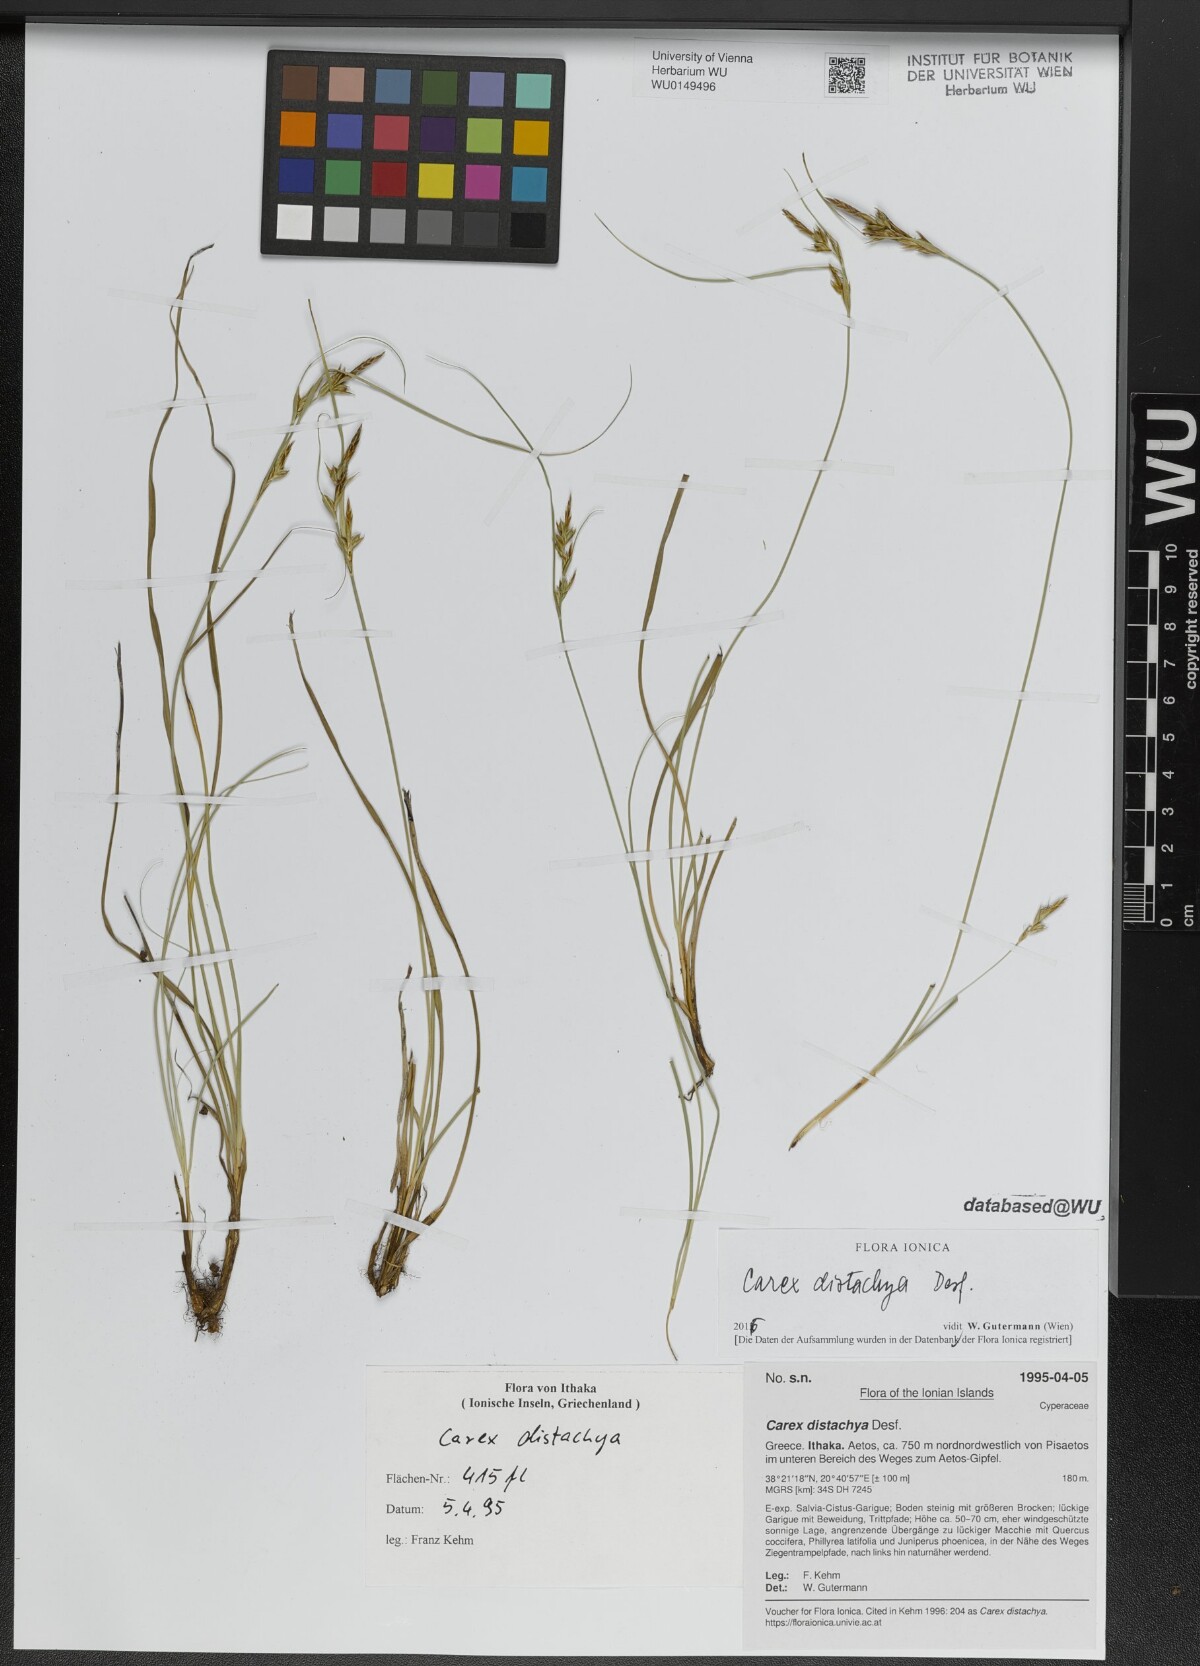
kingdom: Plantae
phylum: Tracheophyta
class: Liliopsida
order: Poales
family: Cyperaceae
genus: Carex
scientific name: Carex distachya
